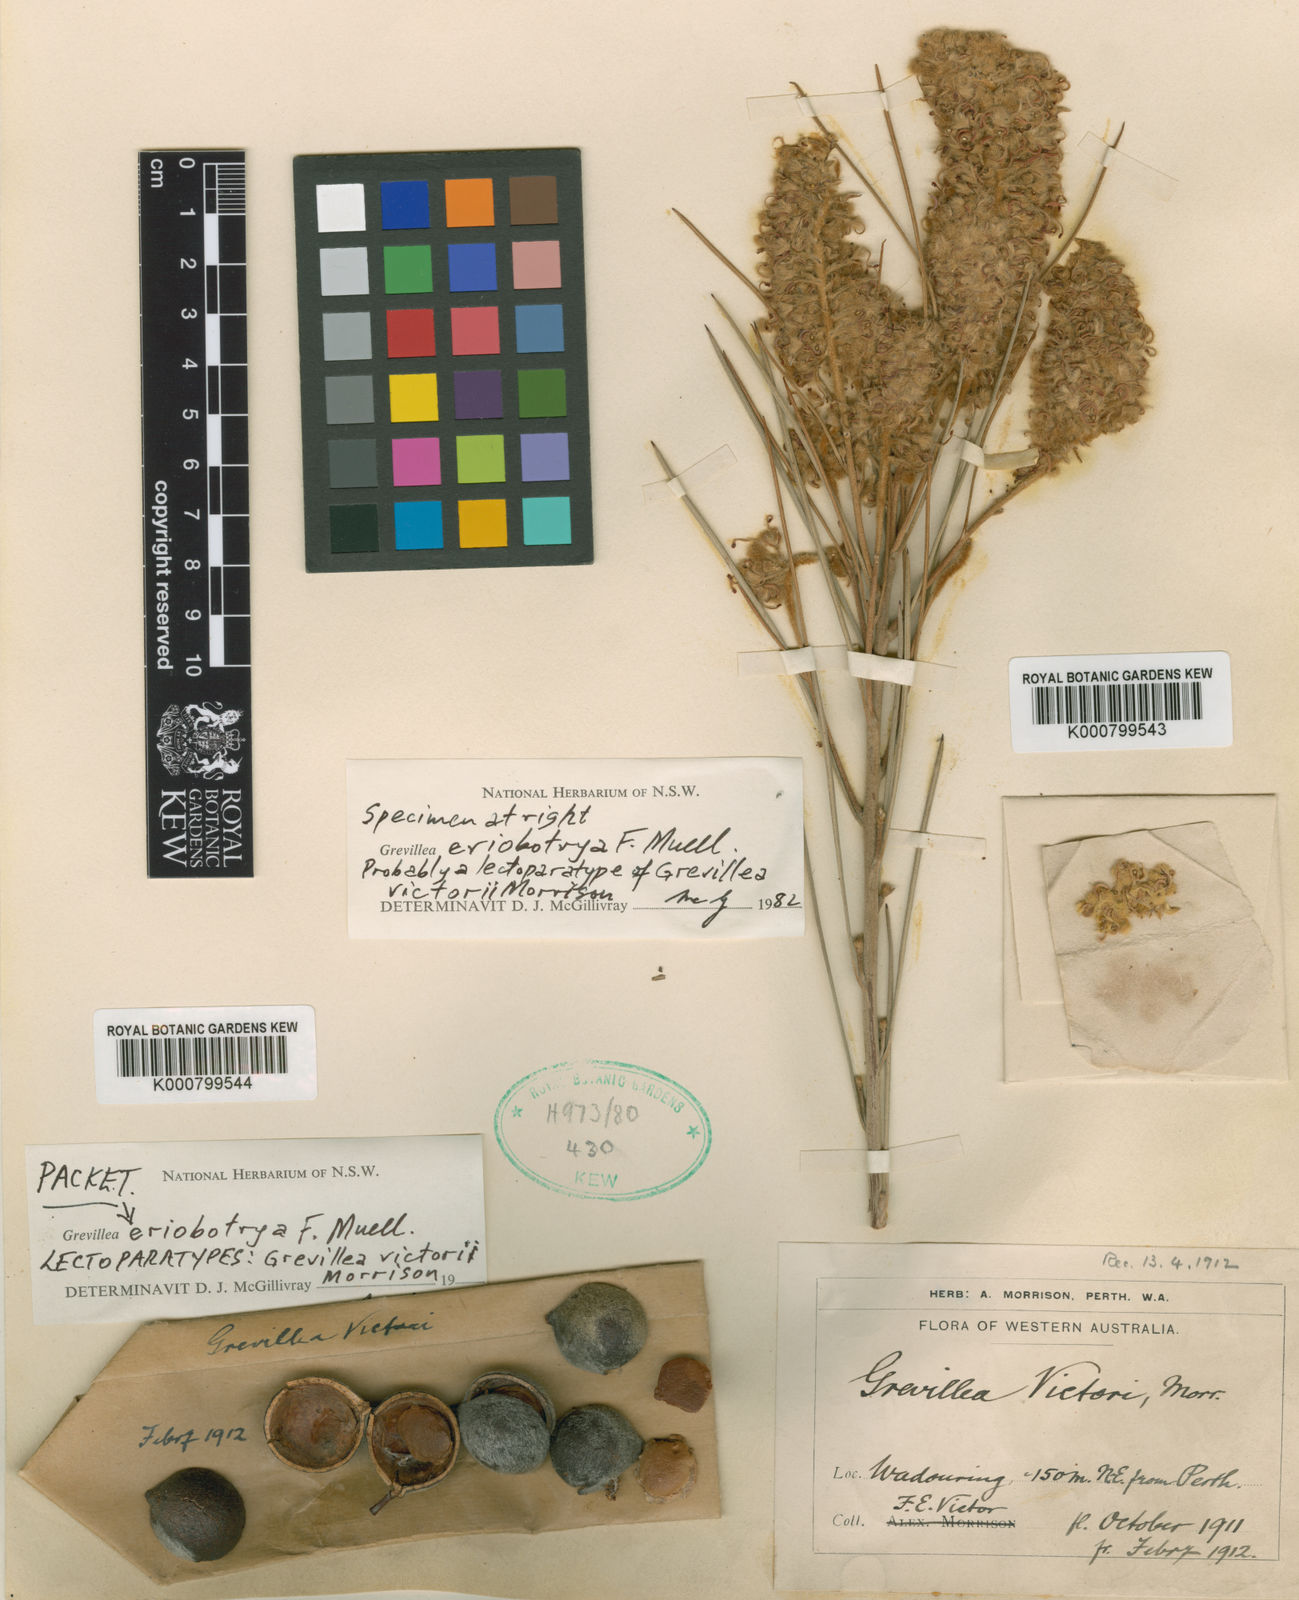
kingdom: Plantae
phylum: Tracheophyta
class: Magnoliopsida
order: Proteales
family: Proteaceae
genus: Grevillea
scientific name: Grevillea eriobotrya
